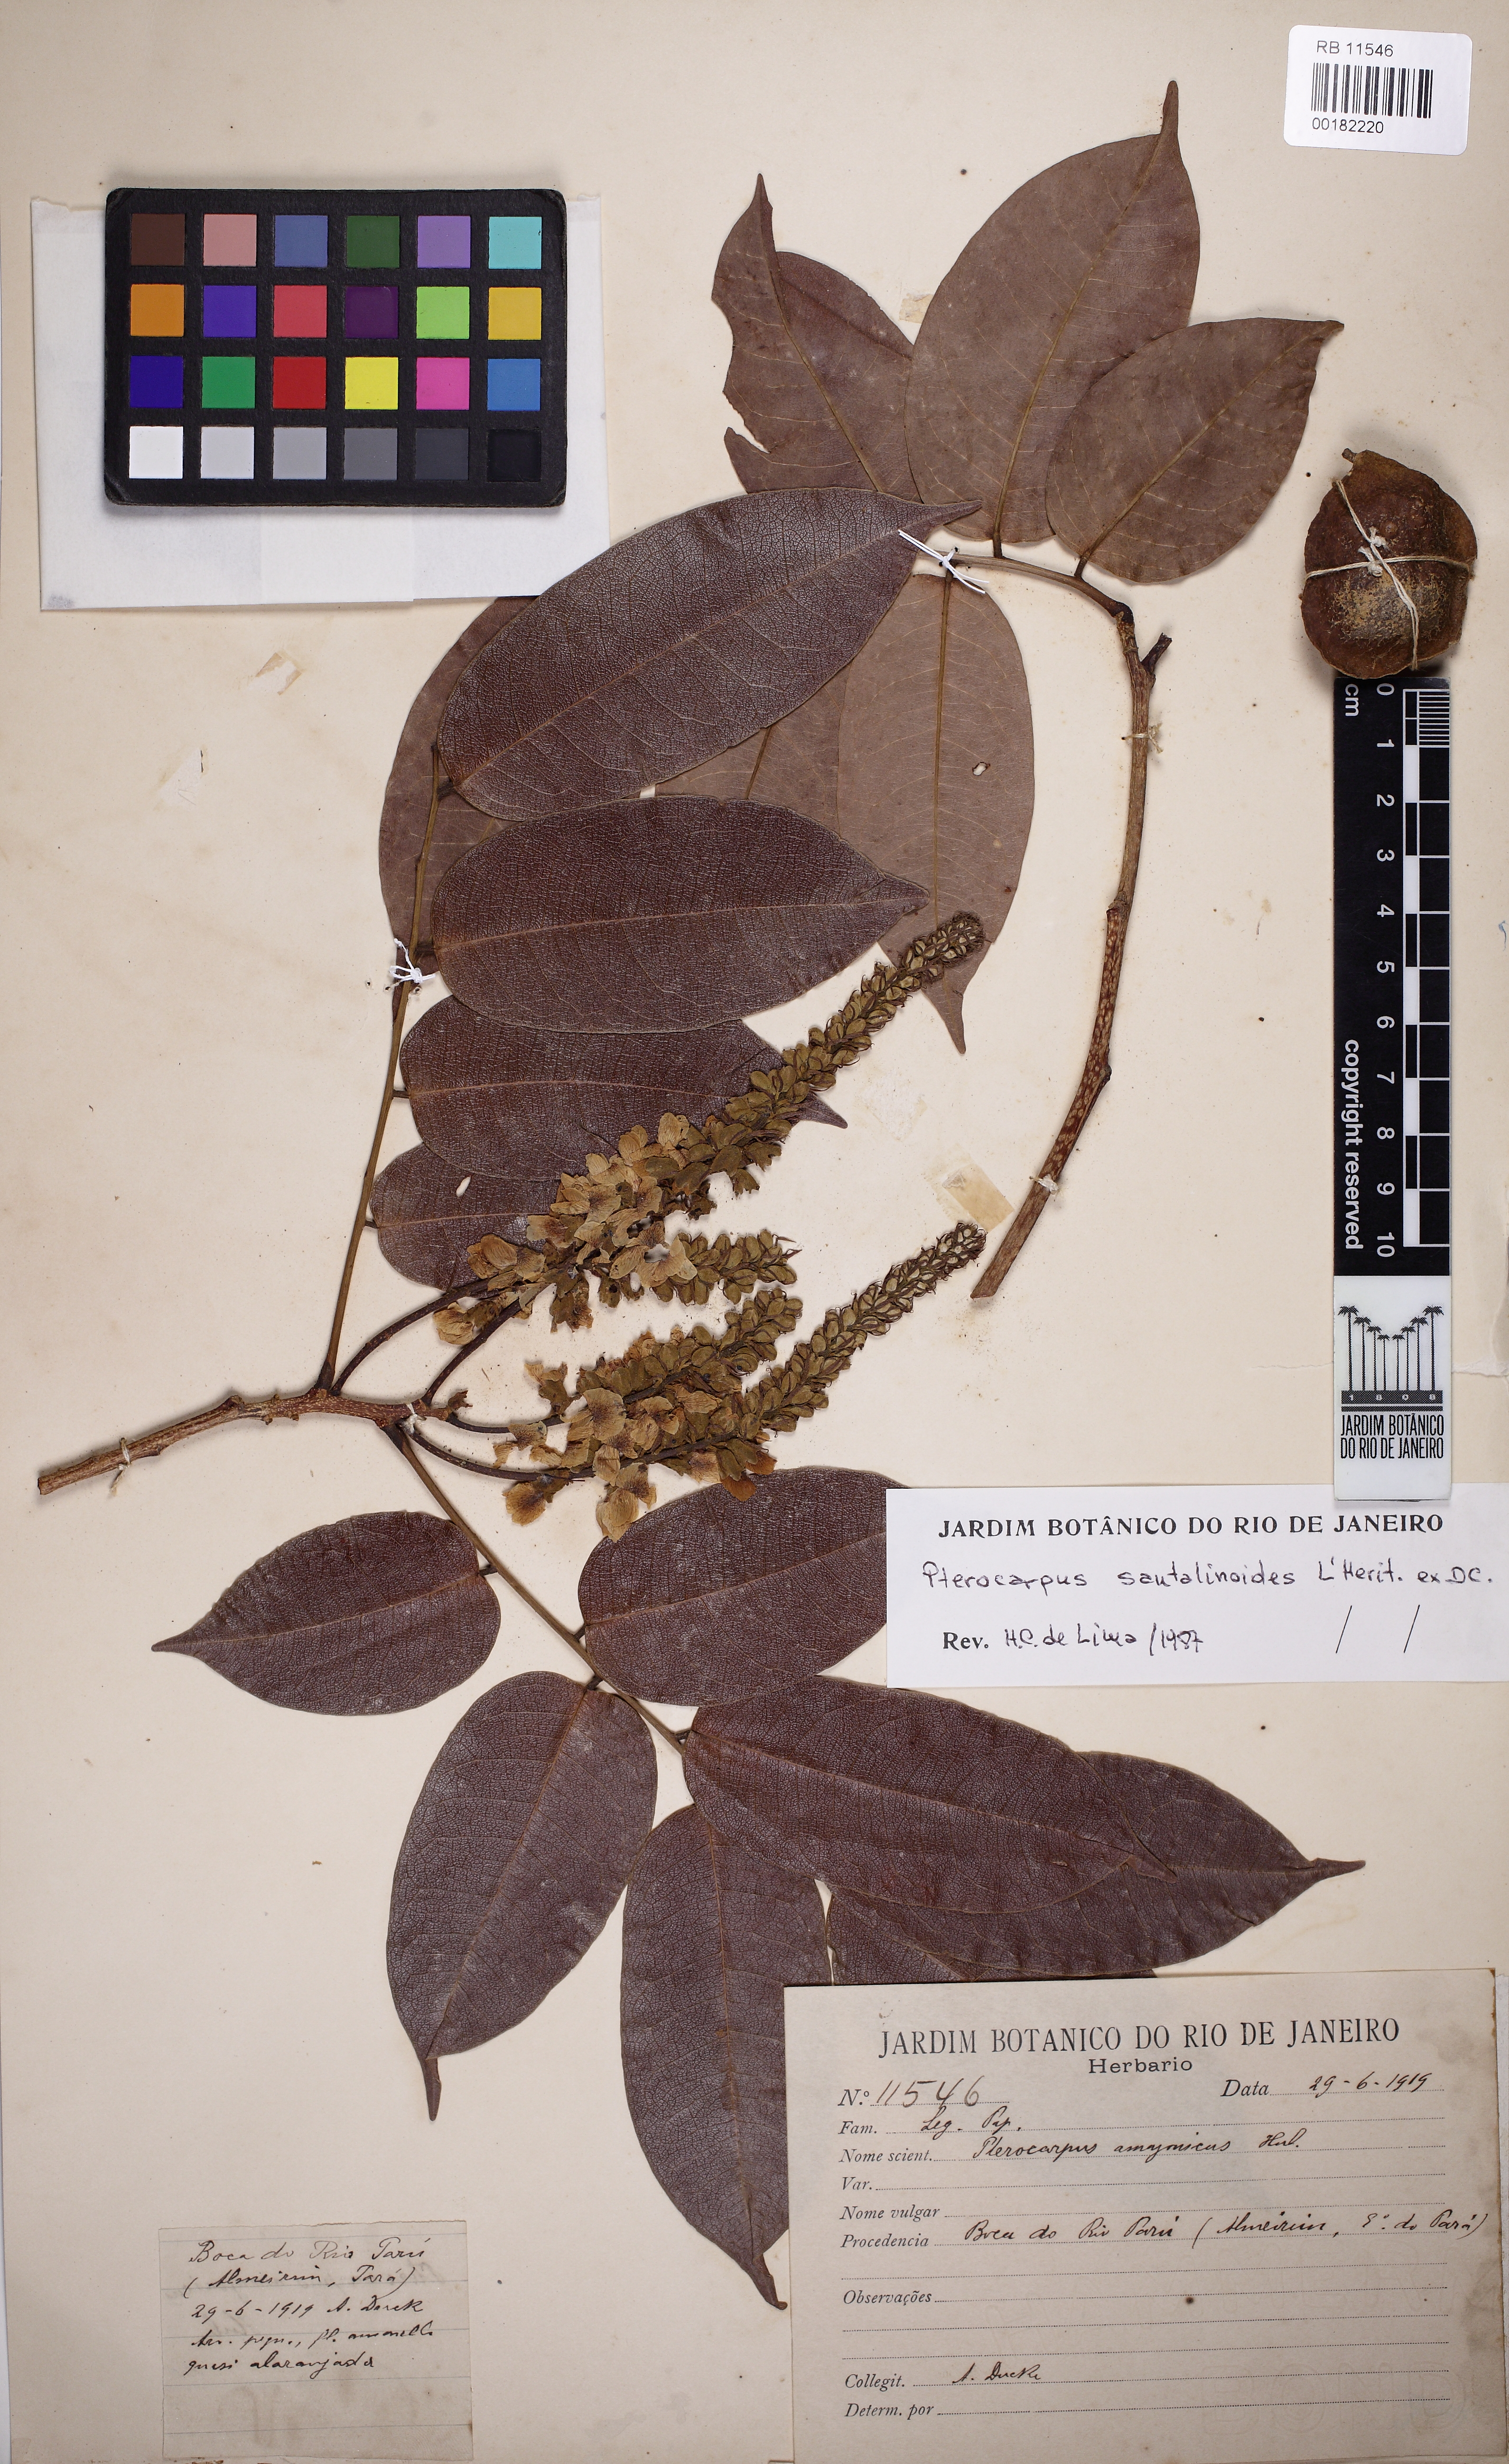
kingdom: Plantae
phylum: Tracheophyta
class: Magnoliopsida
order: Fabales
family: Fabaceae
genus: Pterocarpus
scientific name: Pterocarpus santalinoides
